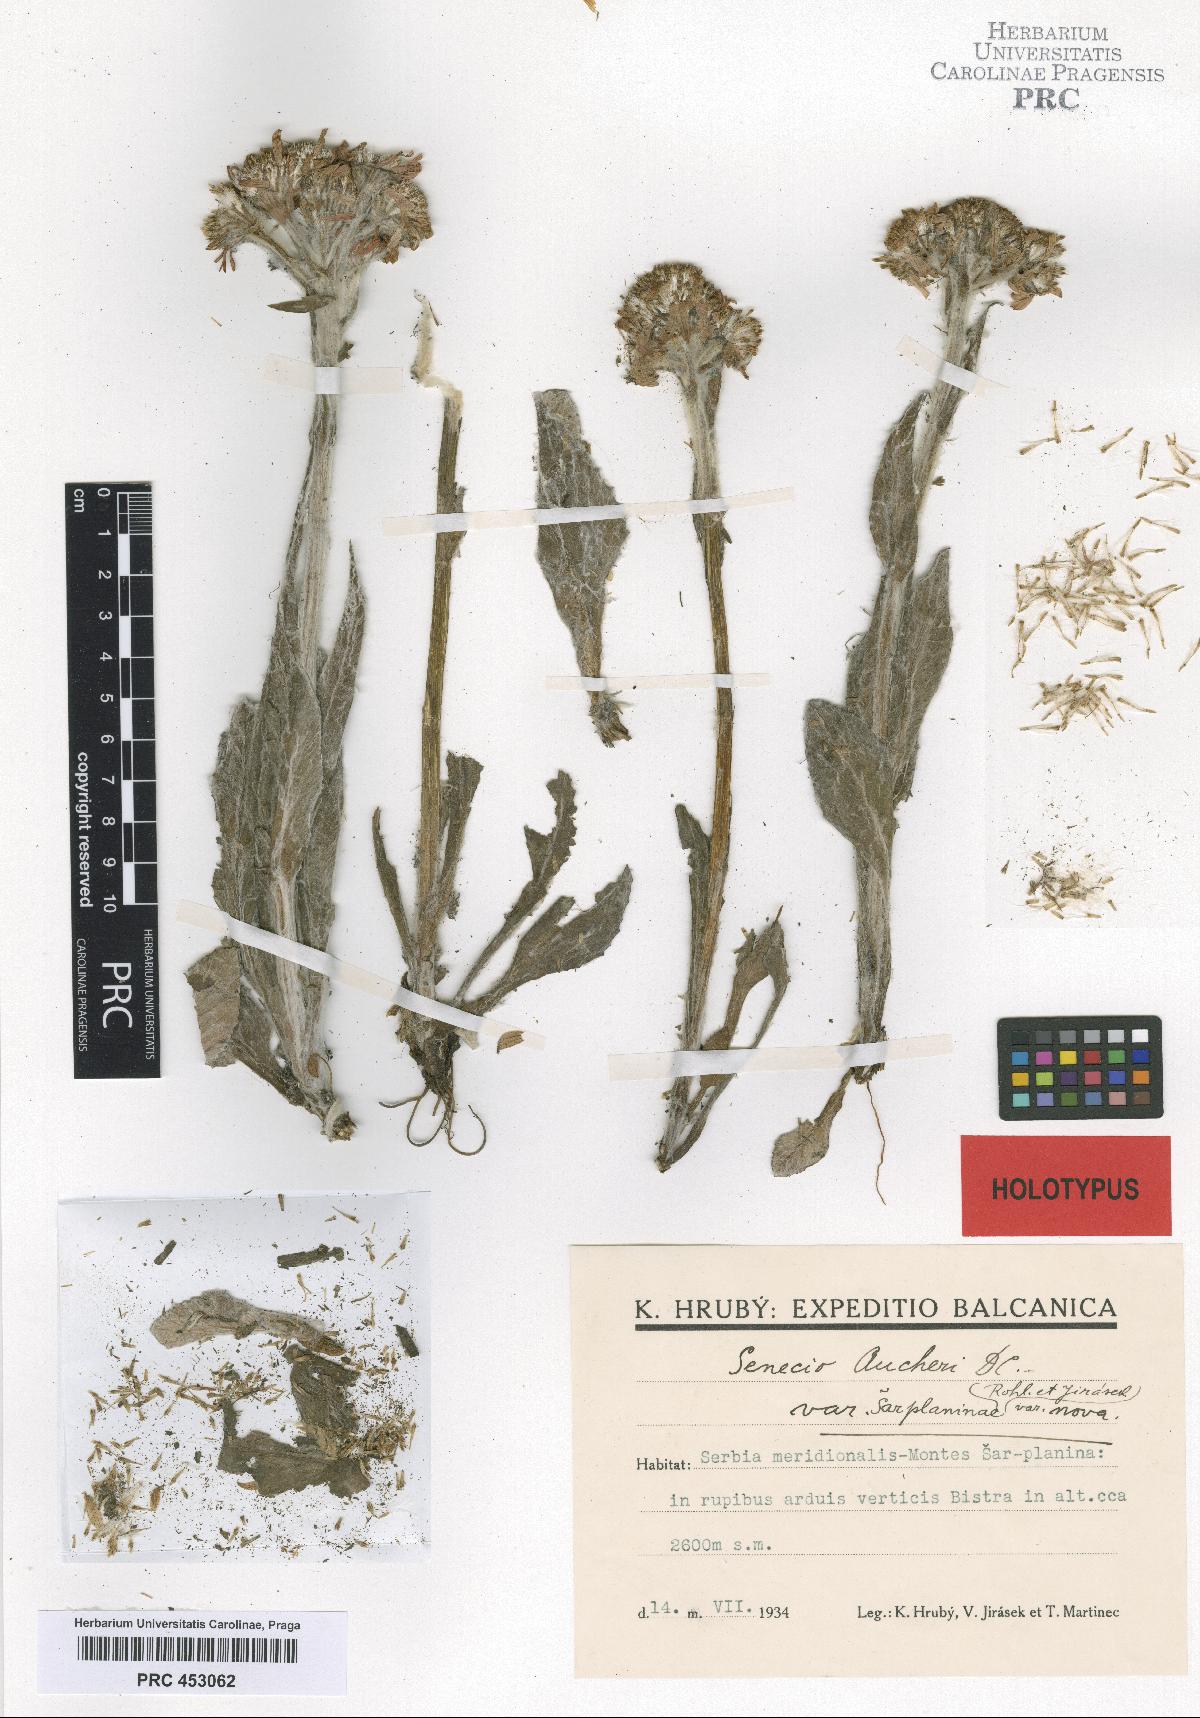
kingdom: Plantae
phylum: Tracheophyta
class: Magnoliopsida
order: Asterales
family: Asteraceae
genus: Tephroseris
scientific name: Tephroseris integrifolia
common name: Field fleawort
